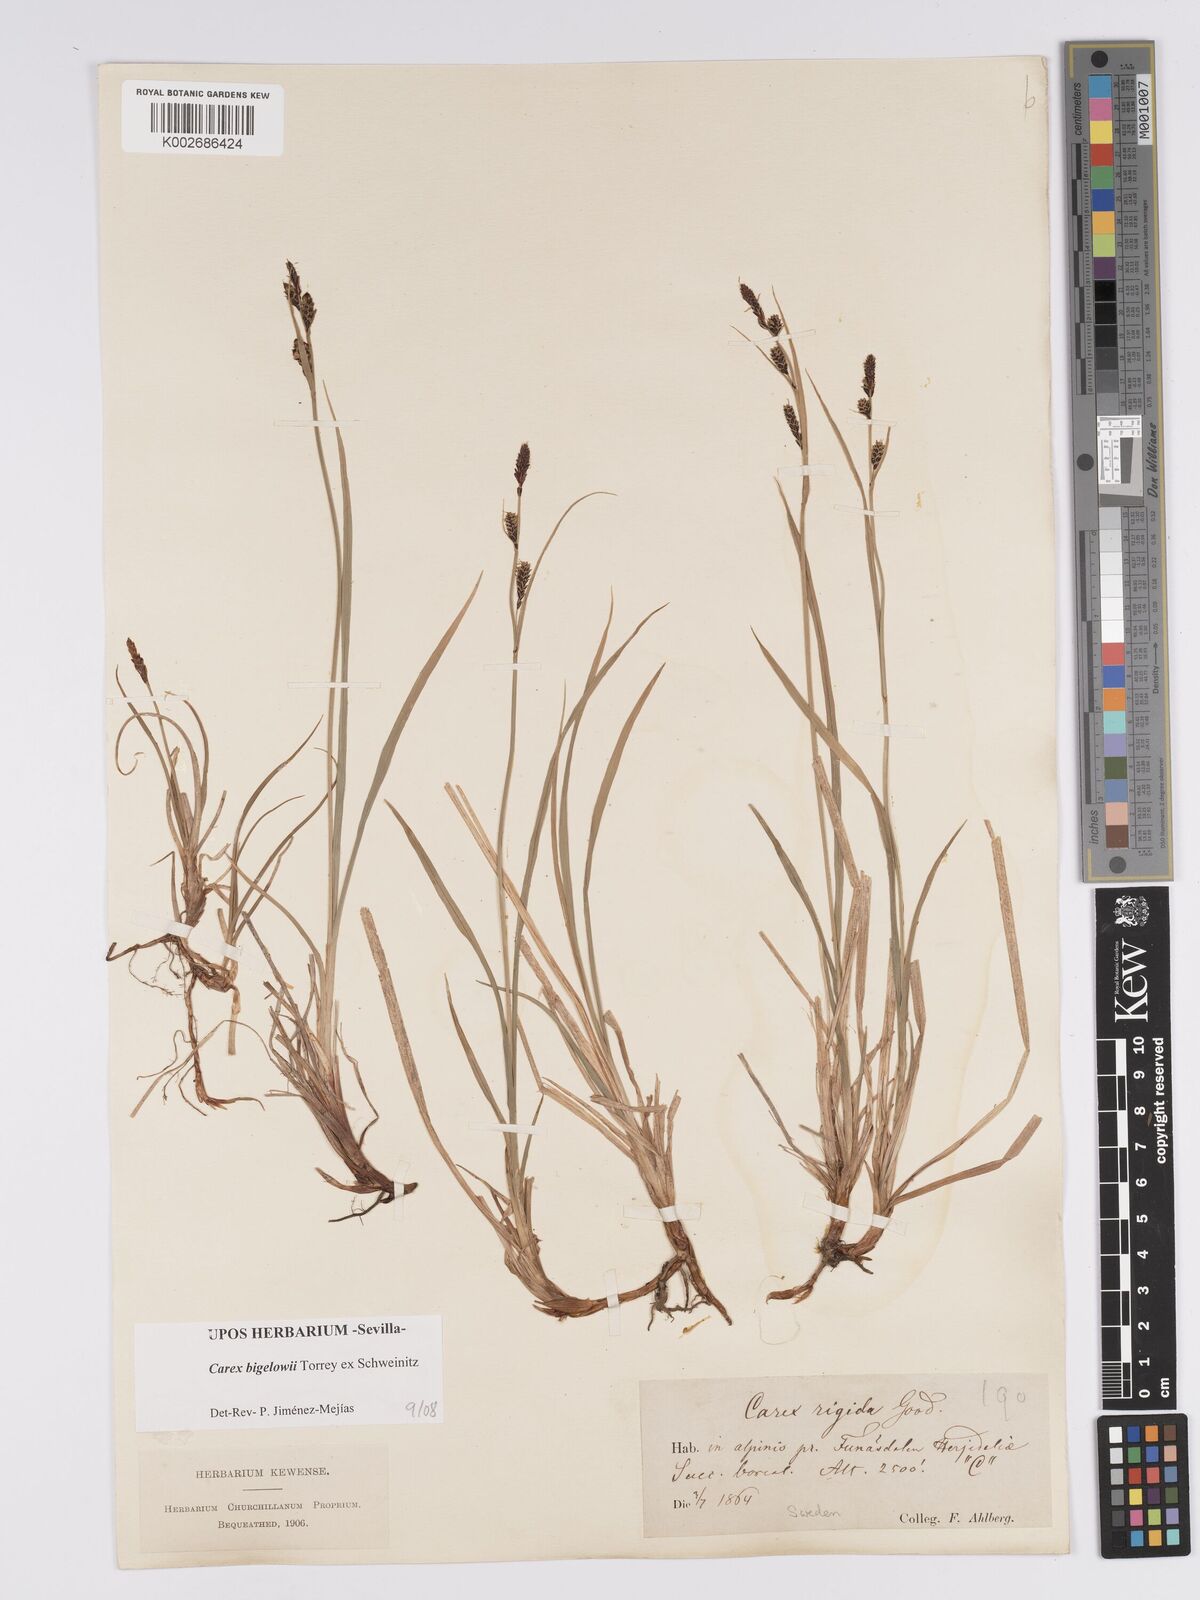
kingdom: Plantae
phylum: Tracheophyta
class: Liliopsida
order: Poales
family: Cyperaceae
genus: Carex
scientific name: Carex bigelowii
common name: Stiff sedge
